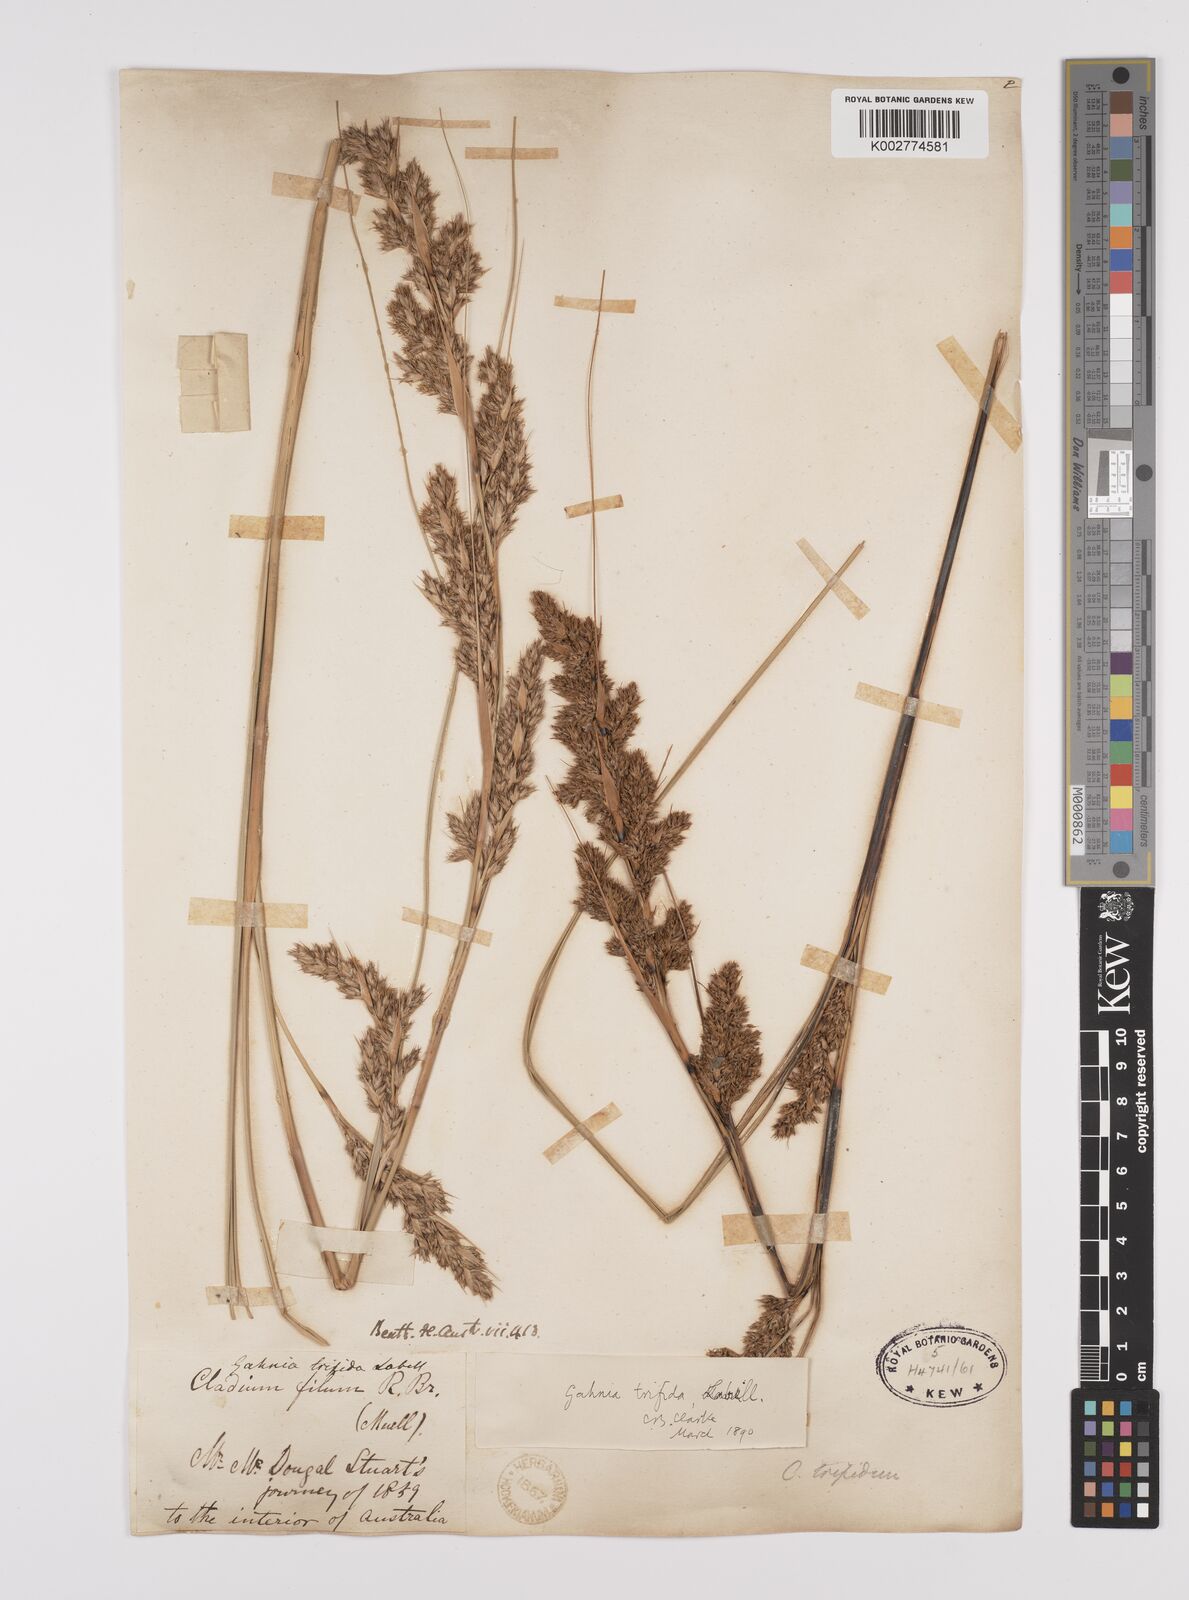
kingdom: Plantae
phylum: Tracheophyta
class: Liliopsida
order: Poales
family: Cyperaceae
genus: Gahnia
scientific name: Gahnia trifida
